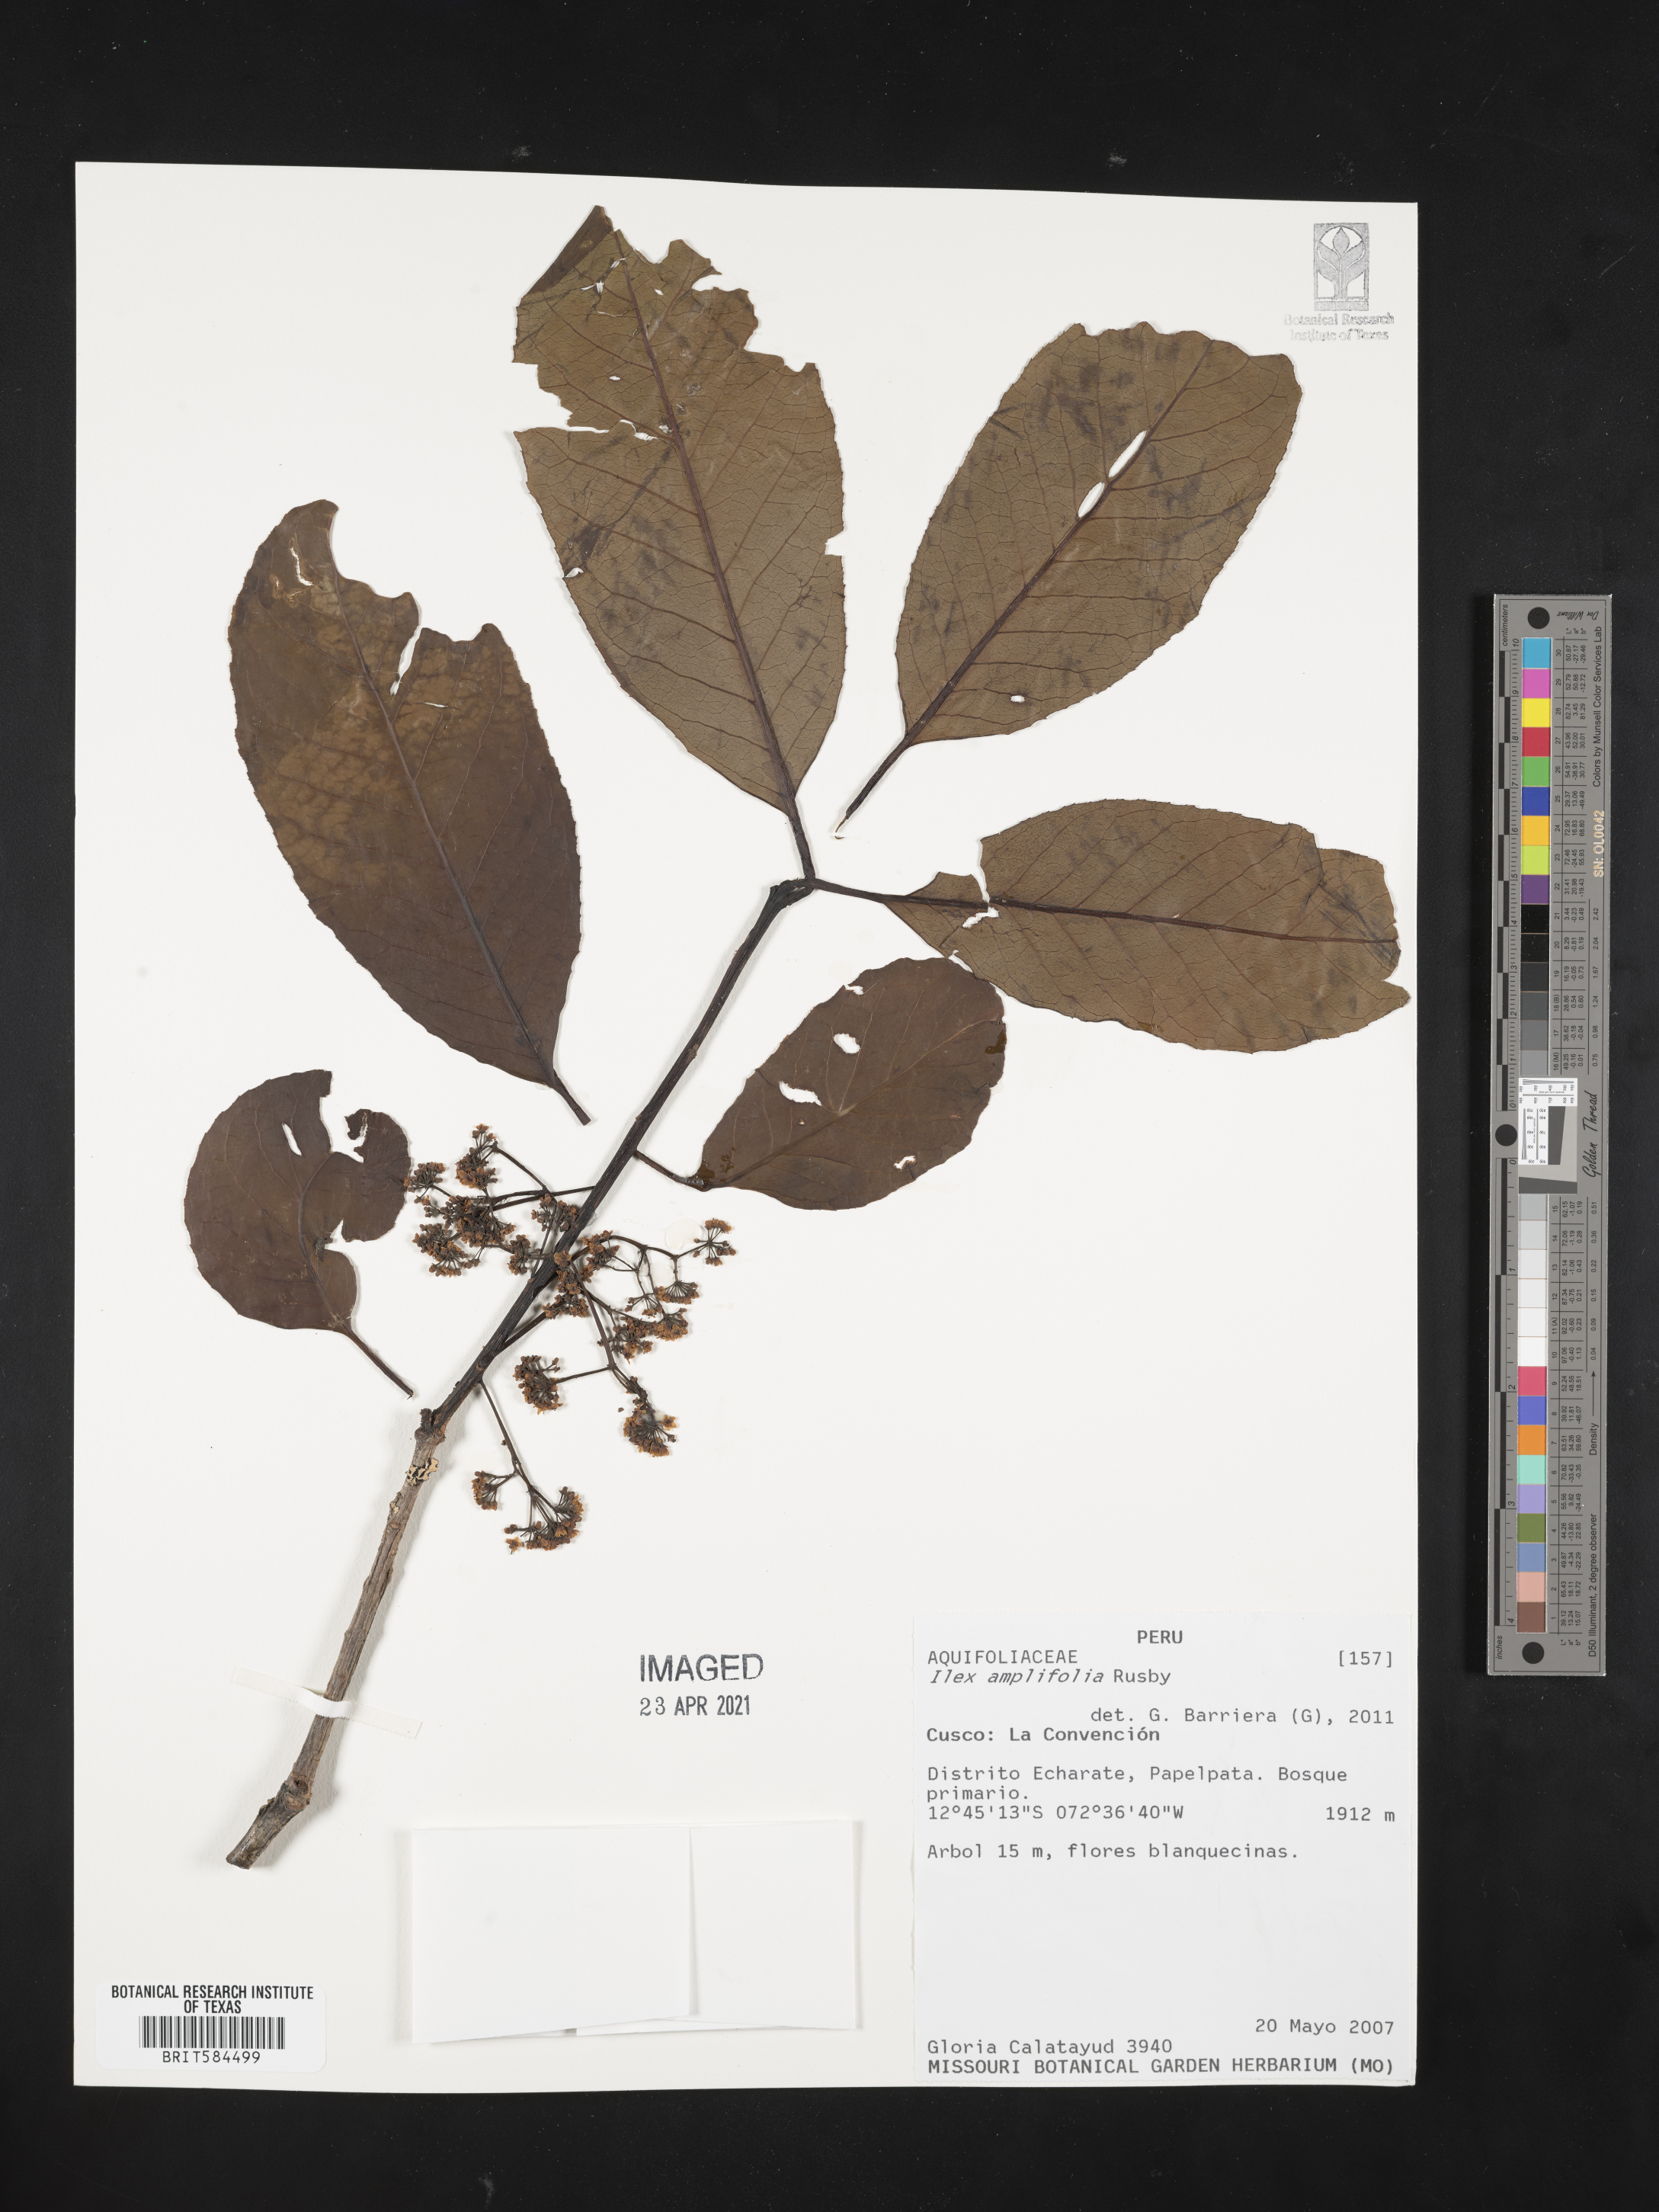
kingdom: Plantae
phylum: Tracheophyta
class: Magnoliopsida
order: Aquifoliales
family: Aquifoliaceae
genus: Ilex
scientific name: Ilex amplifolia
